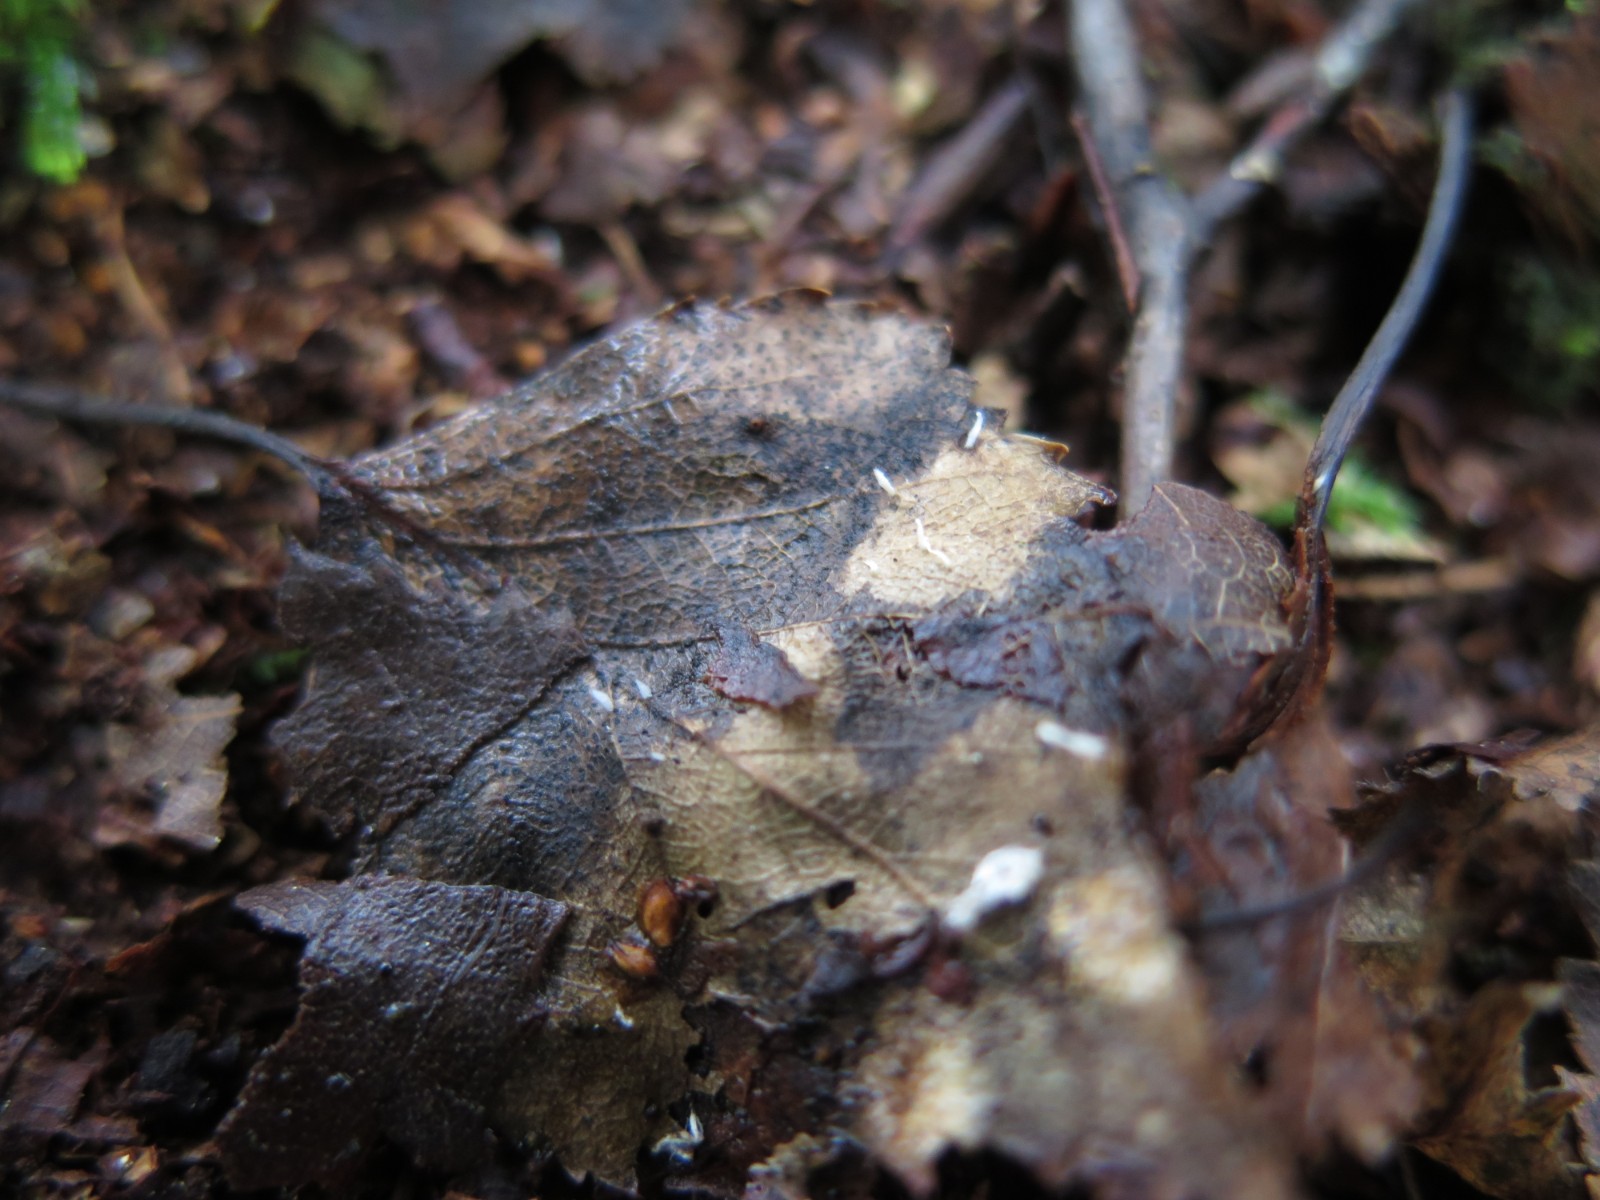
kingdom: Fungi
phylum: Basidiomycota
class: Agaricomycetes
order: Agaricales
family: Typhulaceae
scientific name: Typhulaceae
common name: trådkøllefamilien
